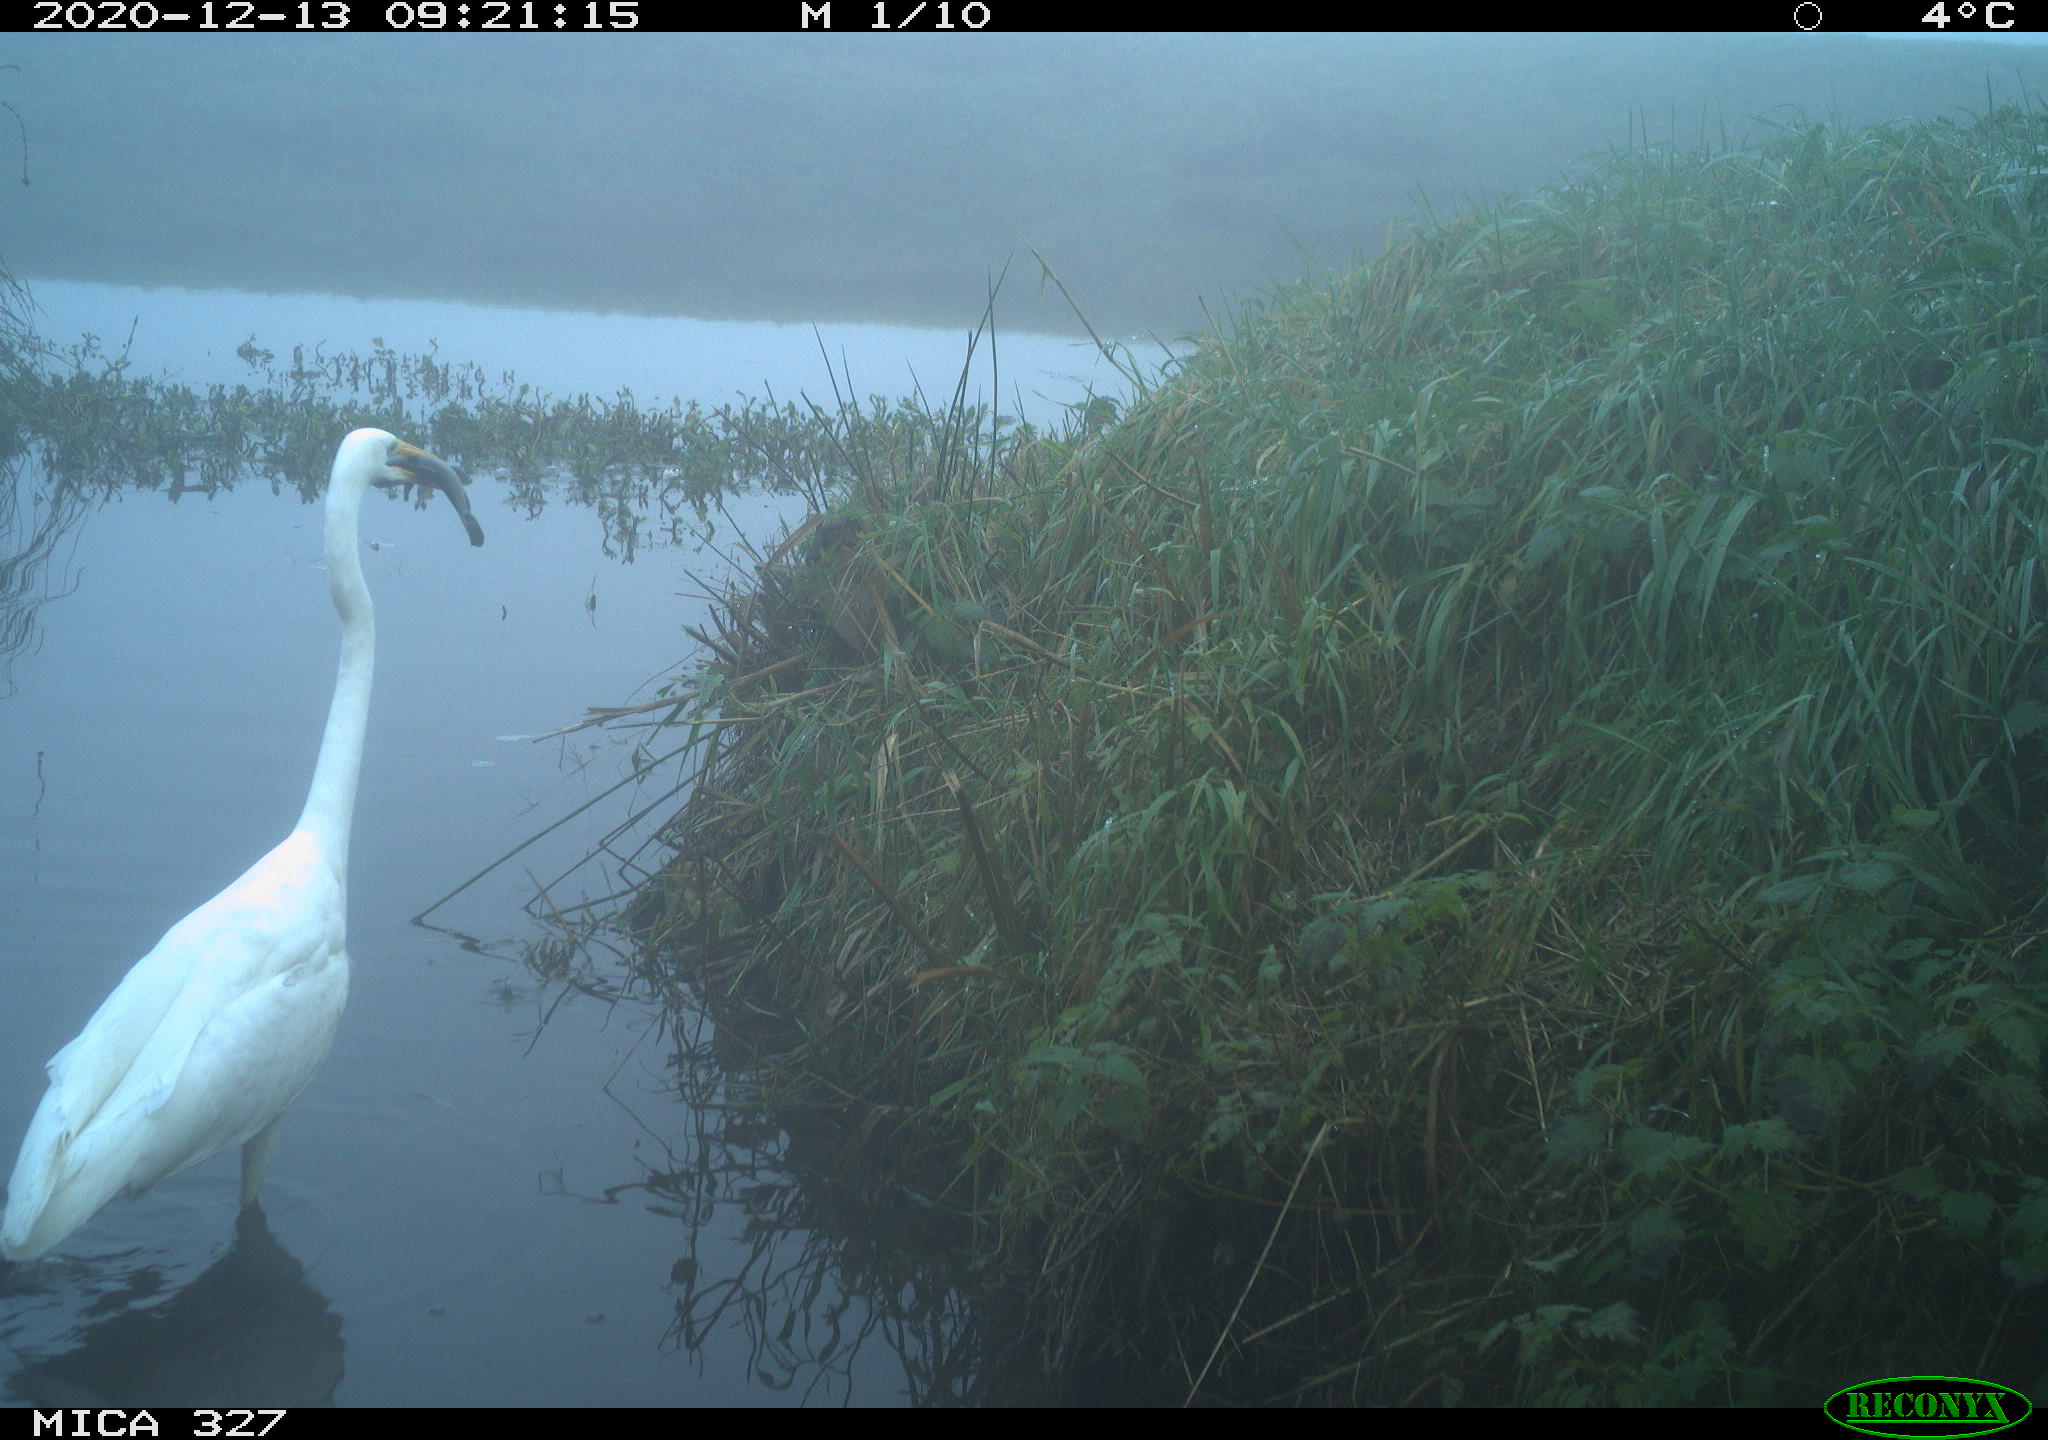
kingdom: Animalia
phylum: Chordata
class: Aves
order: Pelecaniformes
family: Ardeidae
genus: Ardea
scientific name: Ardea alba
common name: Great egret
